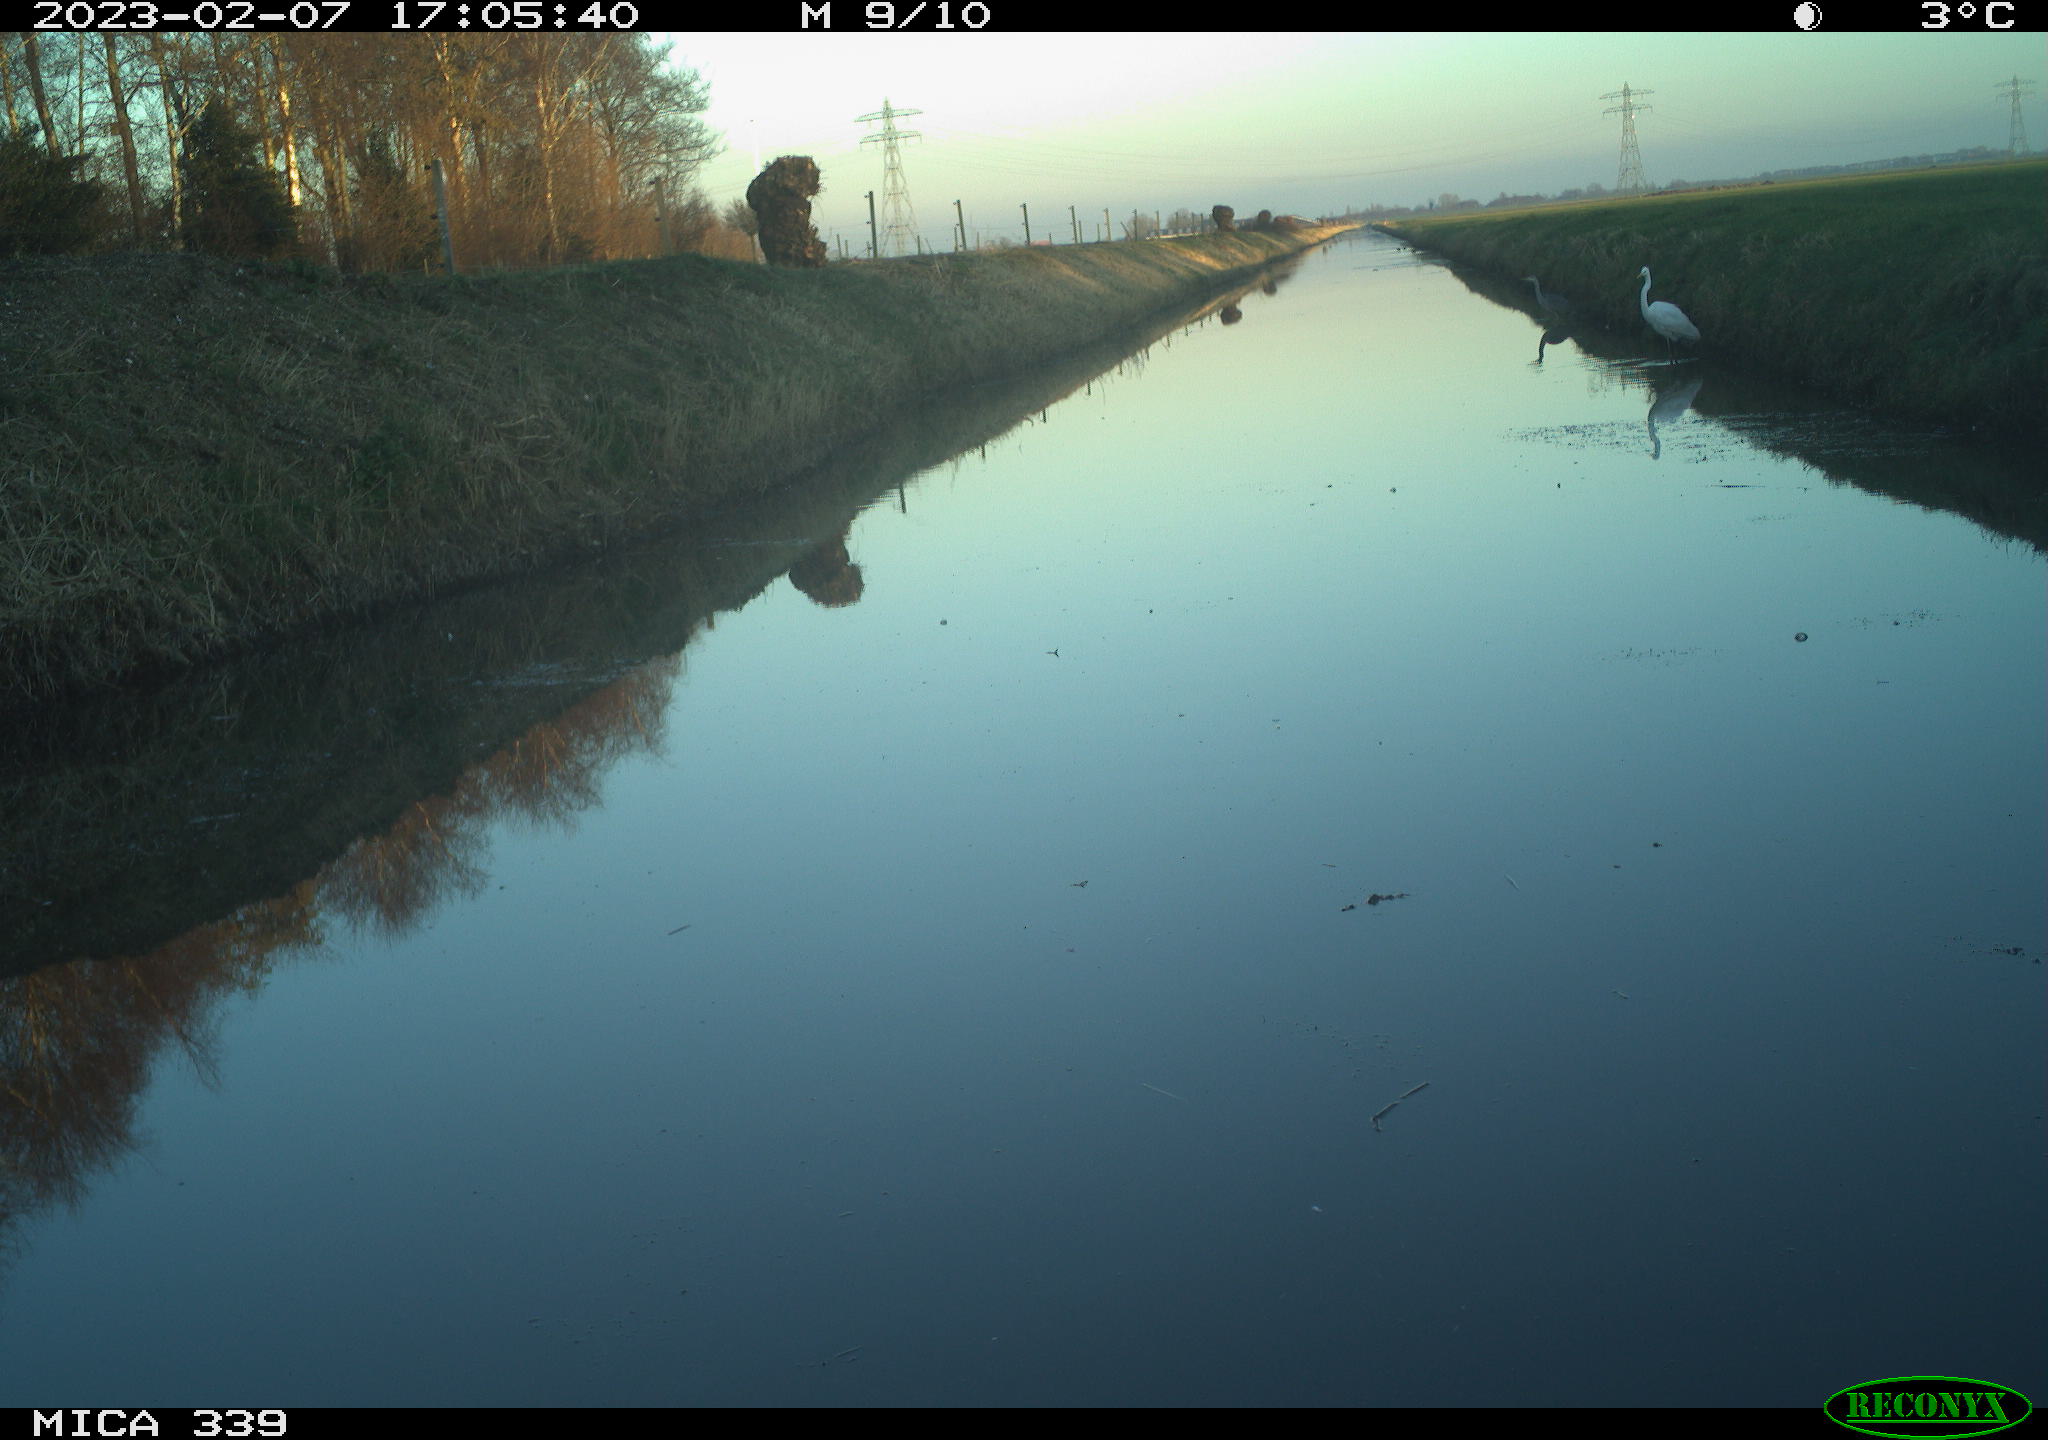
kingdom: Animalia
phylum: Chordata
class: Aves
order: Pelecaniformes
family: Ardeidae
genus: Ardea
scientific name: Ardea cinerea
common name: Grey heron
